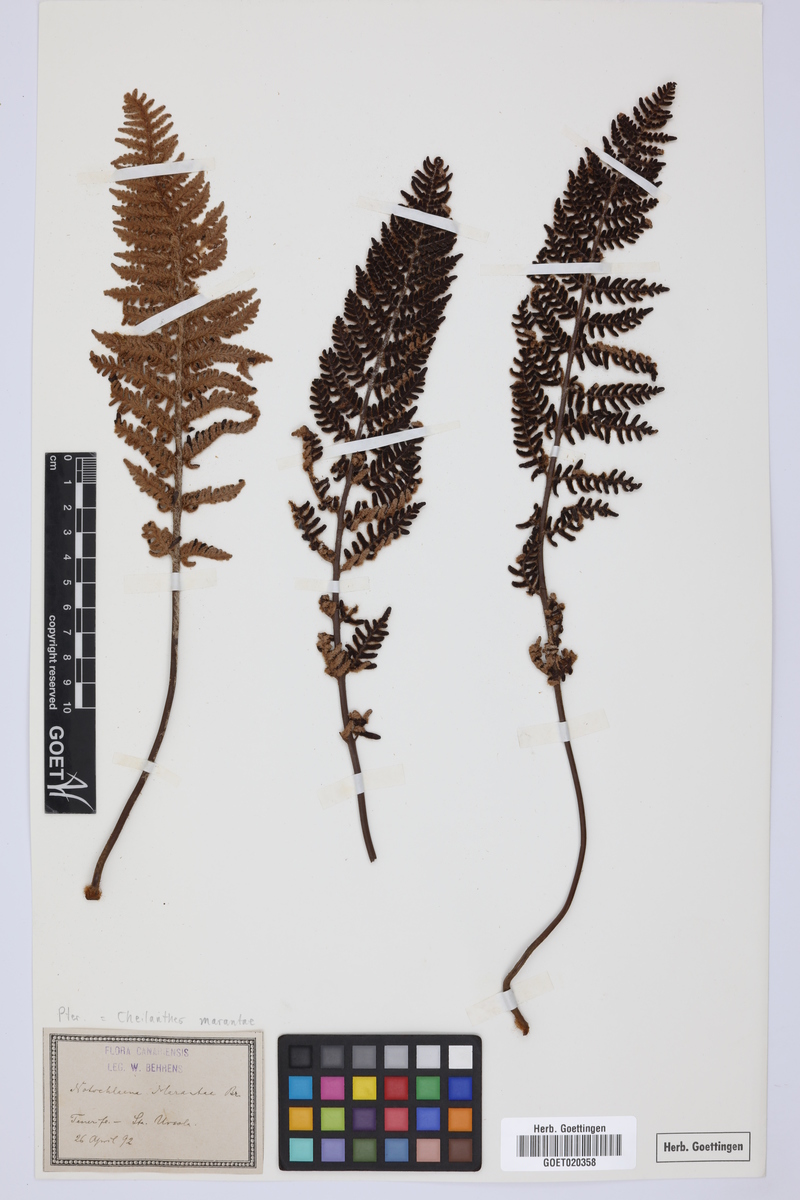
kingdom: Plantae
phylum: Tracheophyta
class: Polypodiopsida
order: Polypodiales
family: Pteridaceae
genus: Paragymnopteris
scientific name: Paragymnopteris marantae
